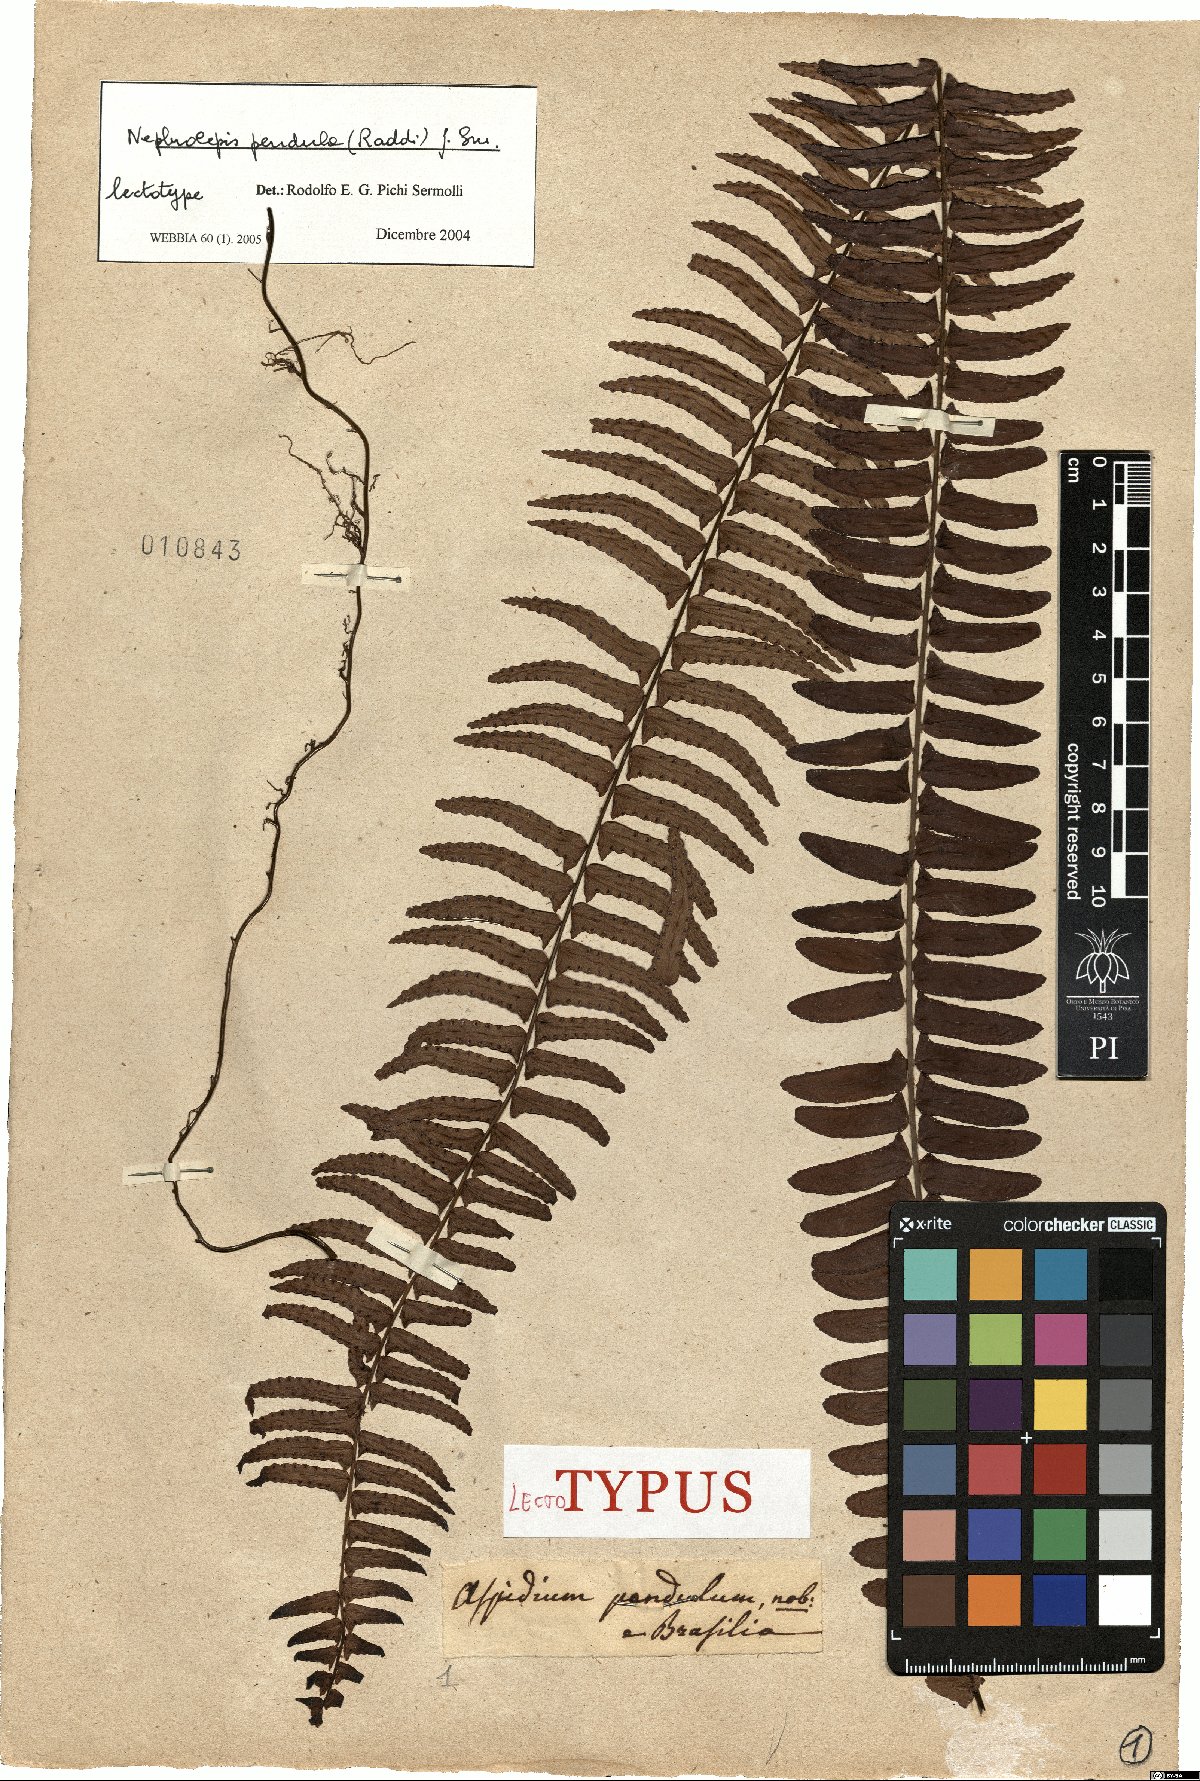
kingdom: Plantae
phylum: Tracheophyta
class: Polypodiopsida
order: Polypodiales
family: Nephrolepidaceae
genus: Nephrolepis
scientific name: Nephrolepis pendula
